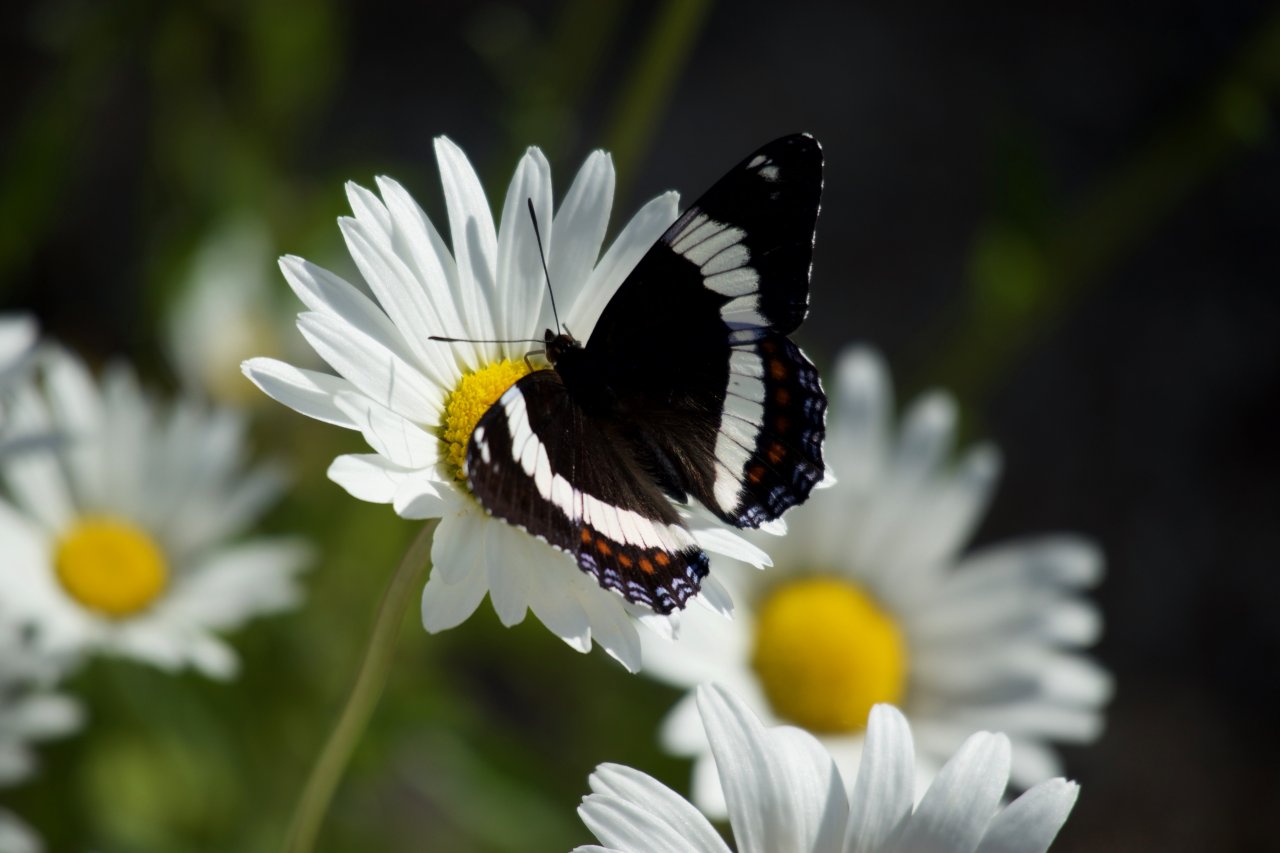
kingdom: Animalia
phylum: Arthropoda
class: Insecta
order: Lepidoptera
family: Nymphalidae
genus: Limenitis
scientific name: Limenitis arthemis
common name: Red-spotted Admiral
